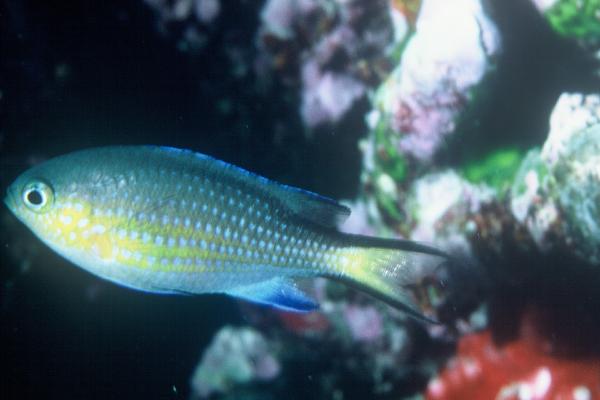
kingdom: Animalia
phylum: Chordata
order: Perciformes
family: Pomacentridae
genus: Chromis
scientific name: Chromis nigrura
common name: Blacktail chromis
